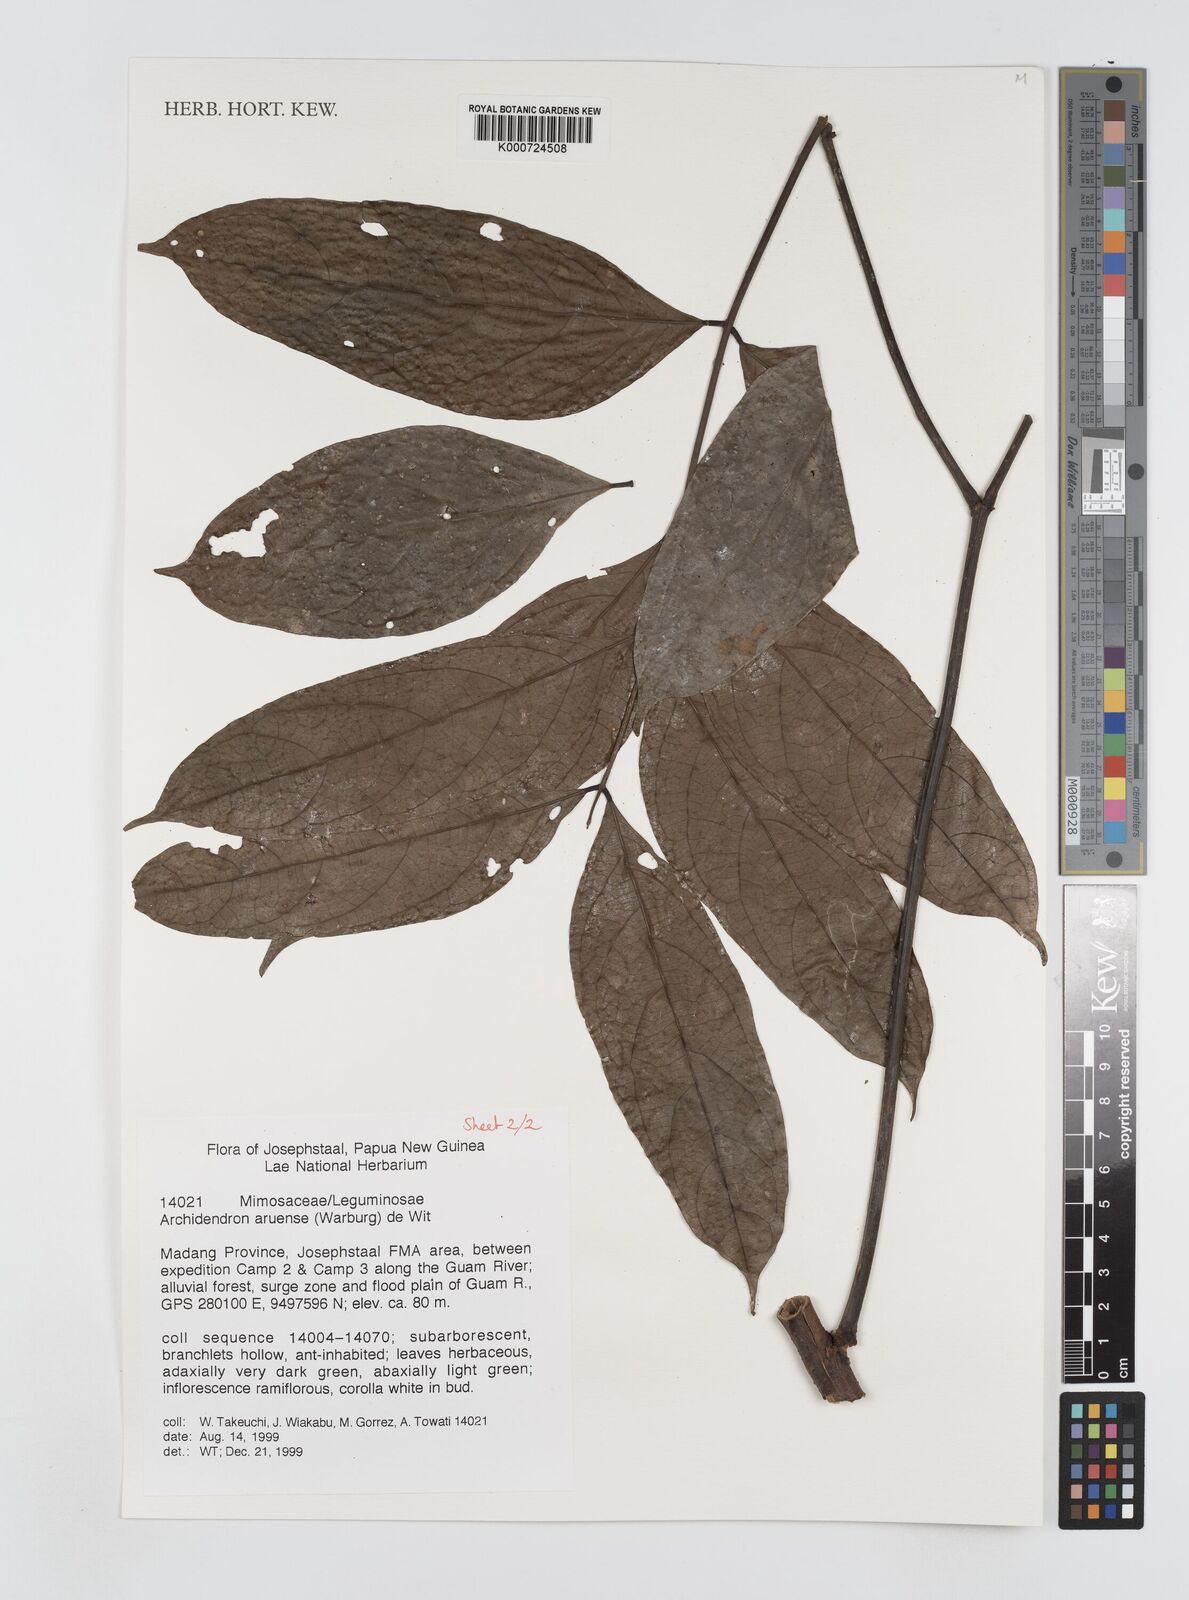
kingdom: Plantae
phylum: Tracheophyta
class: Magnoliopsida
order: Fabales
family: Fabaceae
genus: Archidendron
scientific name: Archidendron aruense
